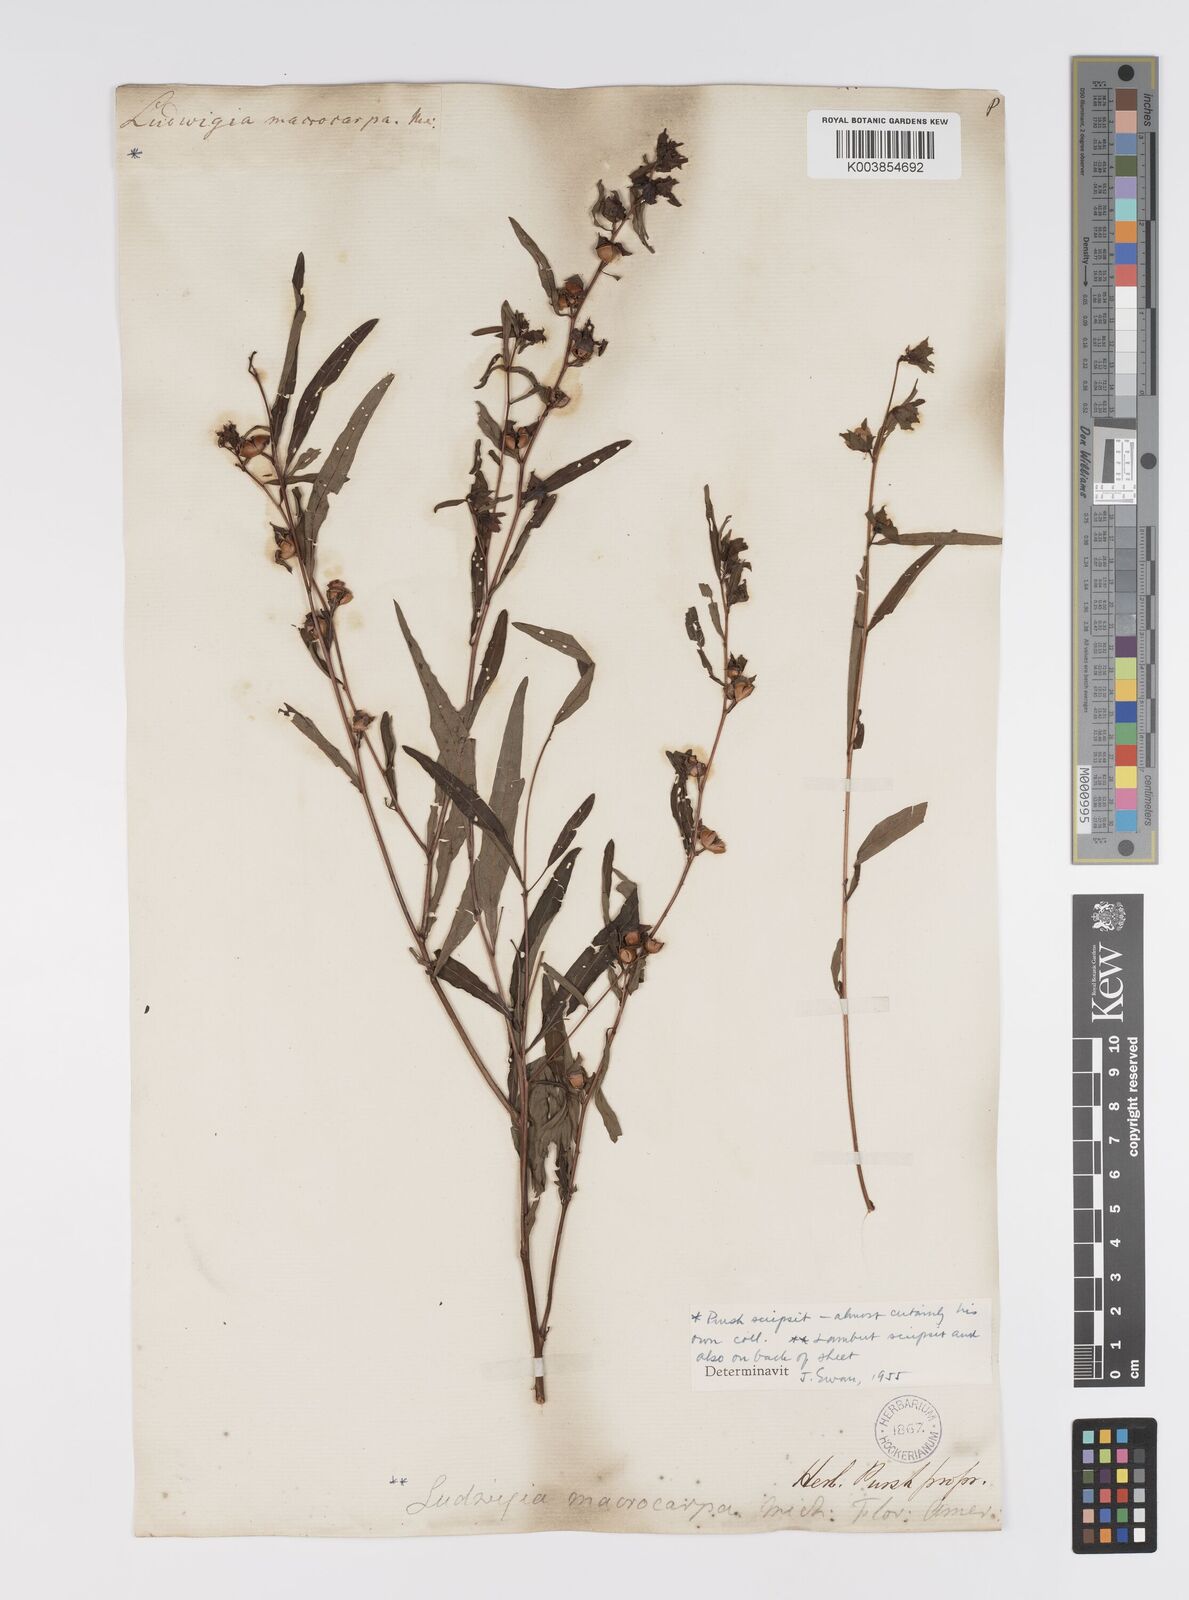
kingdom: Plantae
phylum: Tracheophyta
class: Magnoliopsida
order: Myrtales
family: Onagraceae
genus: Ludwigia
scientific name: Ludwigia alternifolia
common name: Rattlebox
